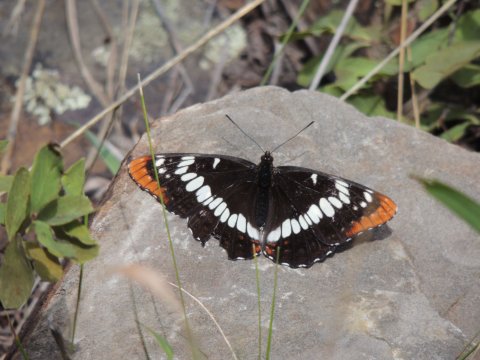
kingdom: Animalia
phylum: Arthropoda
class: Insecta
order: Lepidoptera
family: Nymphalidae
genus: Limenitis
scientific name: Limenitis lorquini
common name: Lorquin's Admiral
